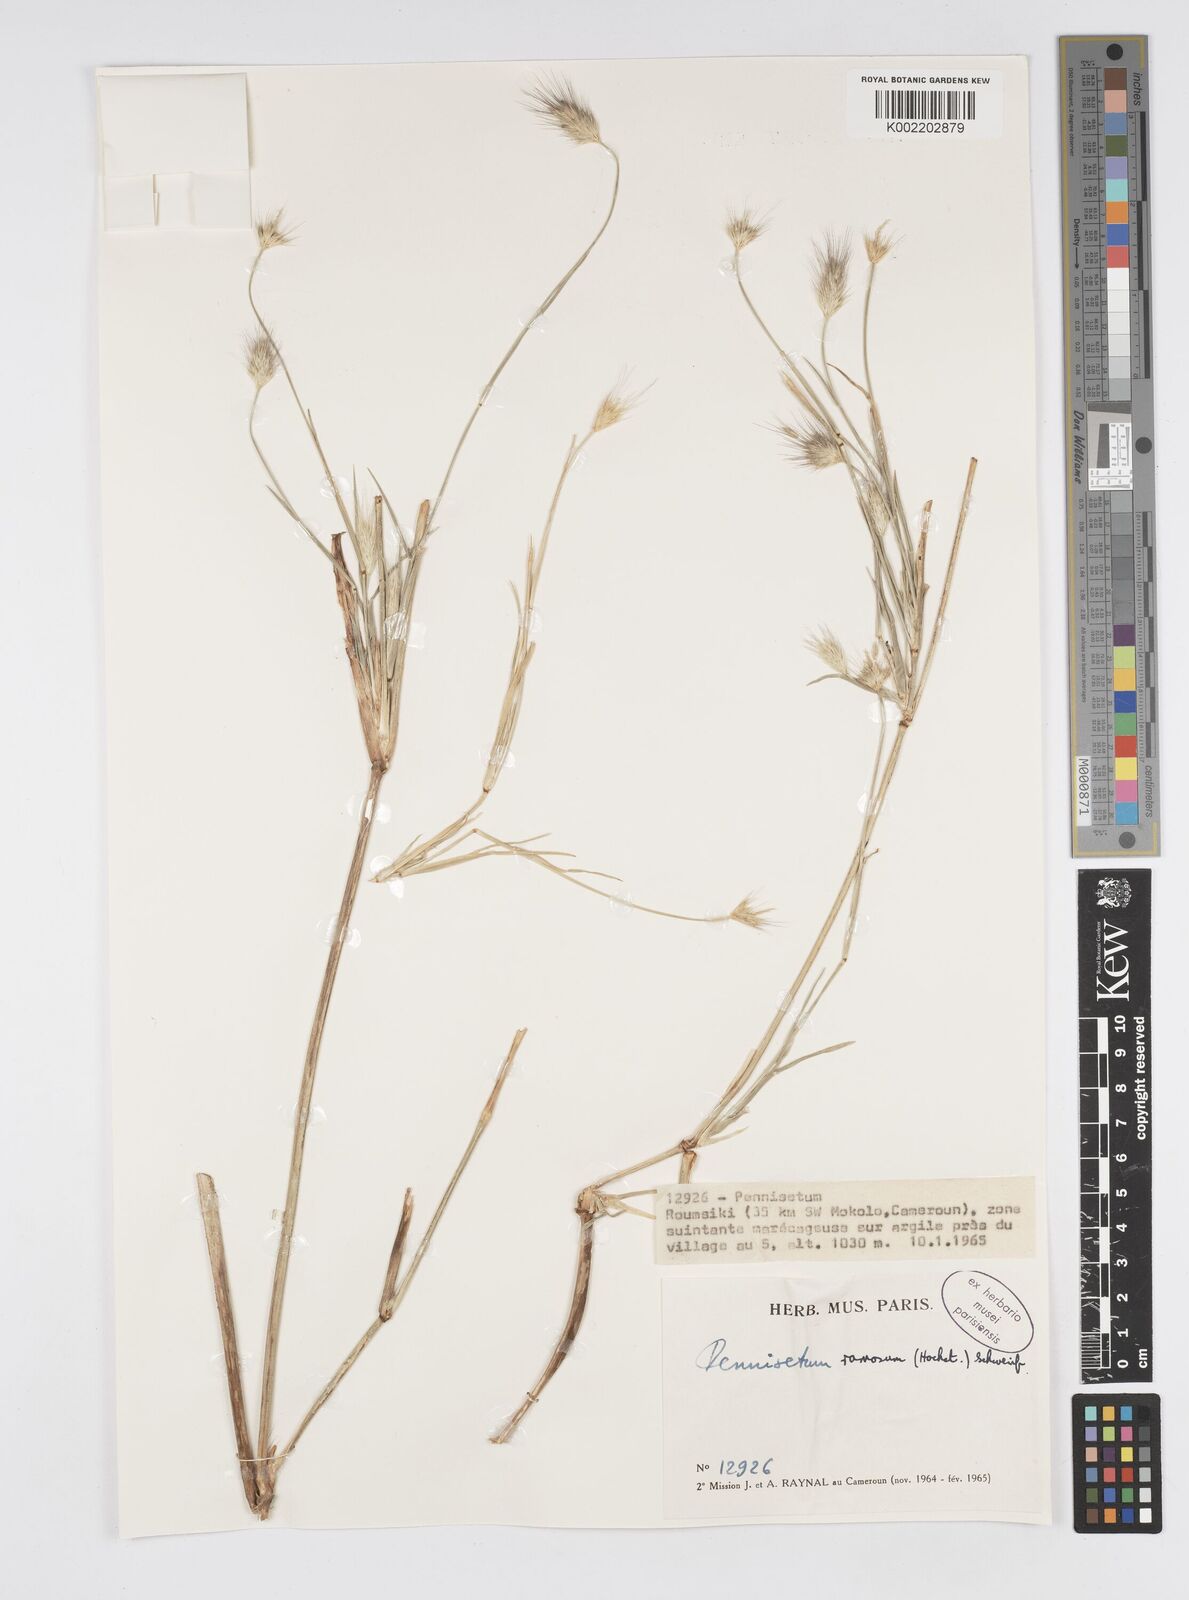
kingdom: Plantae
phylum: Tracheophyta
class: Liliopsida
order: Poales
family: Poaceae
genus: Cenchrus
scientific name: Cenchrus setosus
